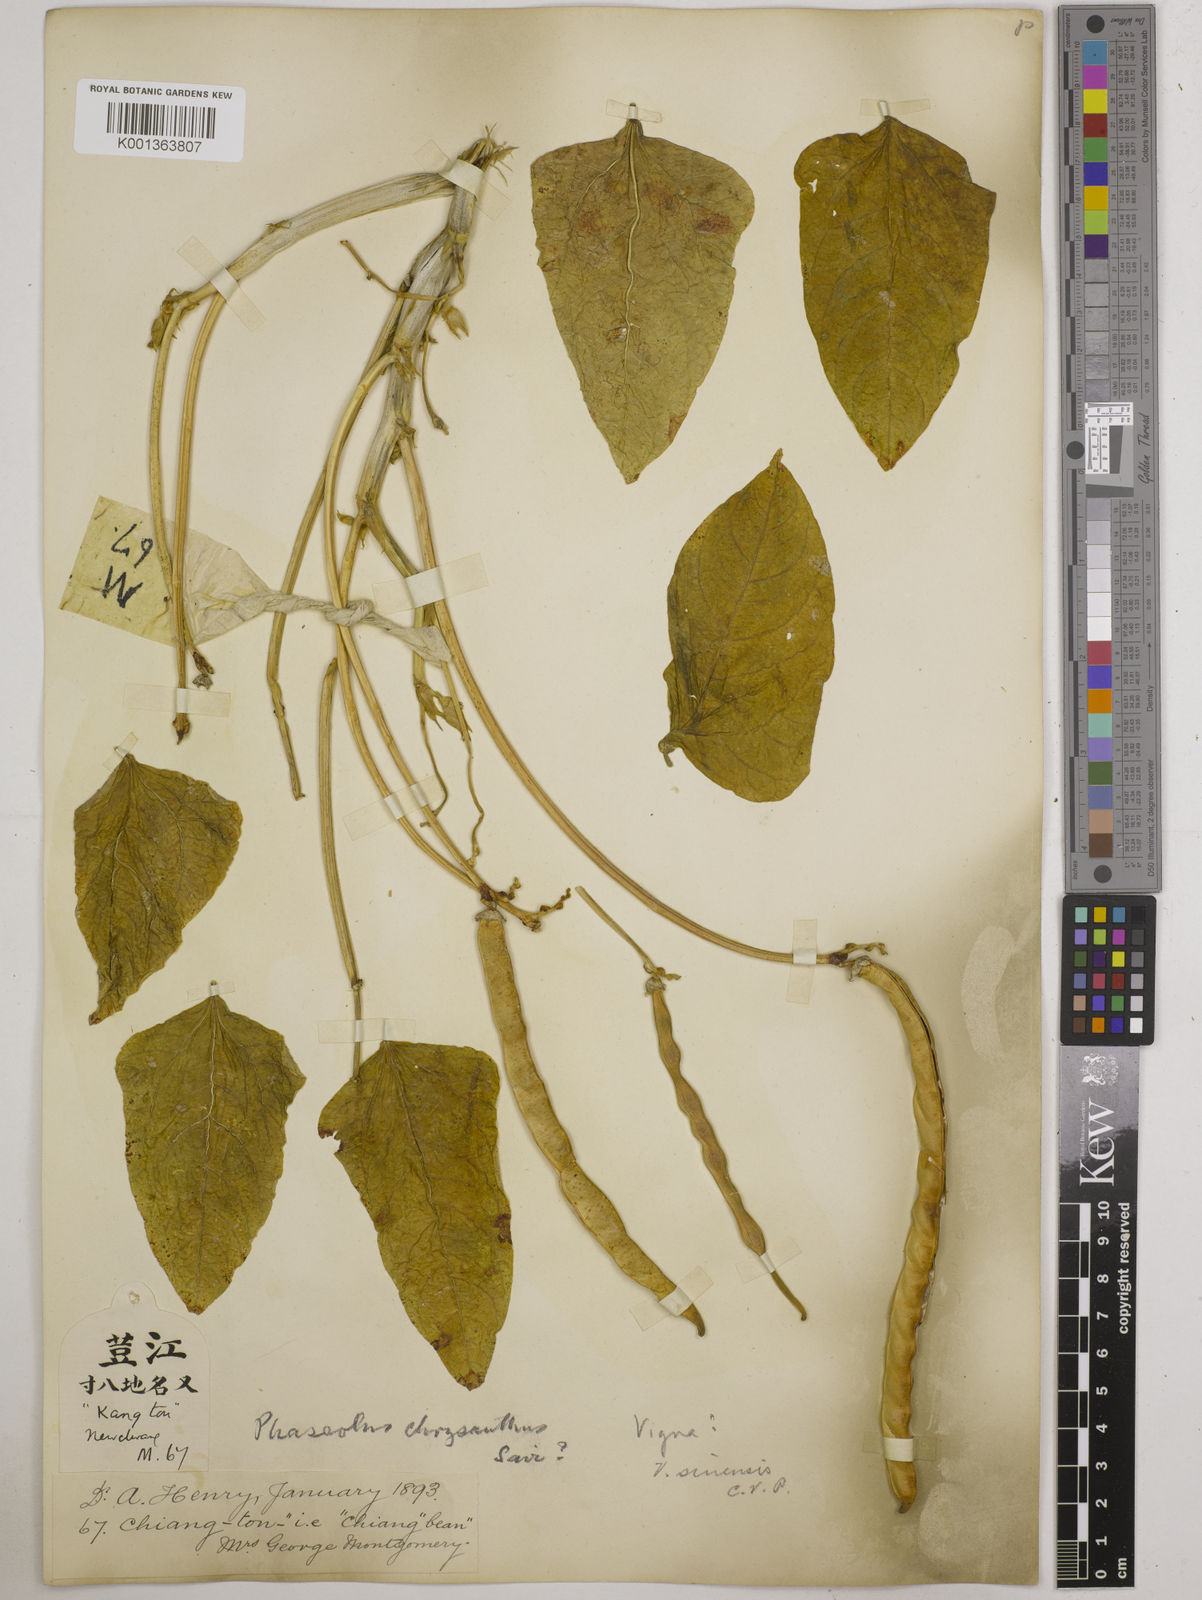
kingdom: Plantae
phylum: Tracheophyta
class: Magnoliopsida
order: Fabales
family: Fabaceae
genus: Vigna
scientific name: Vigna
